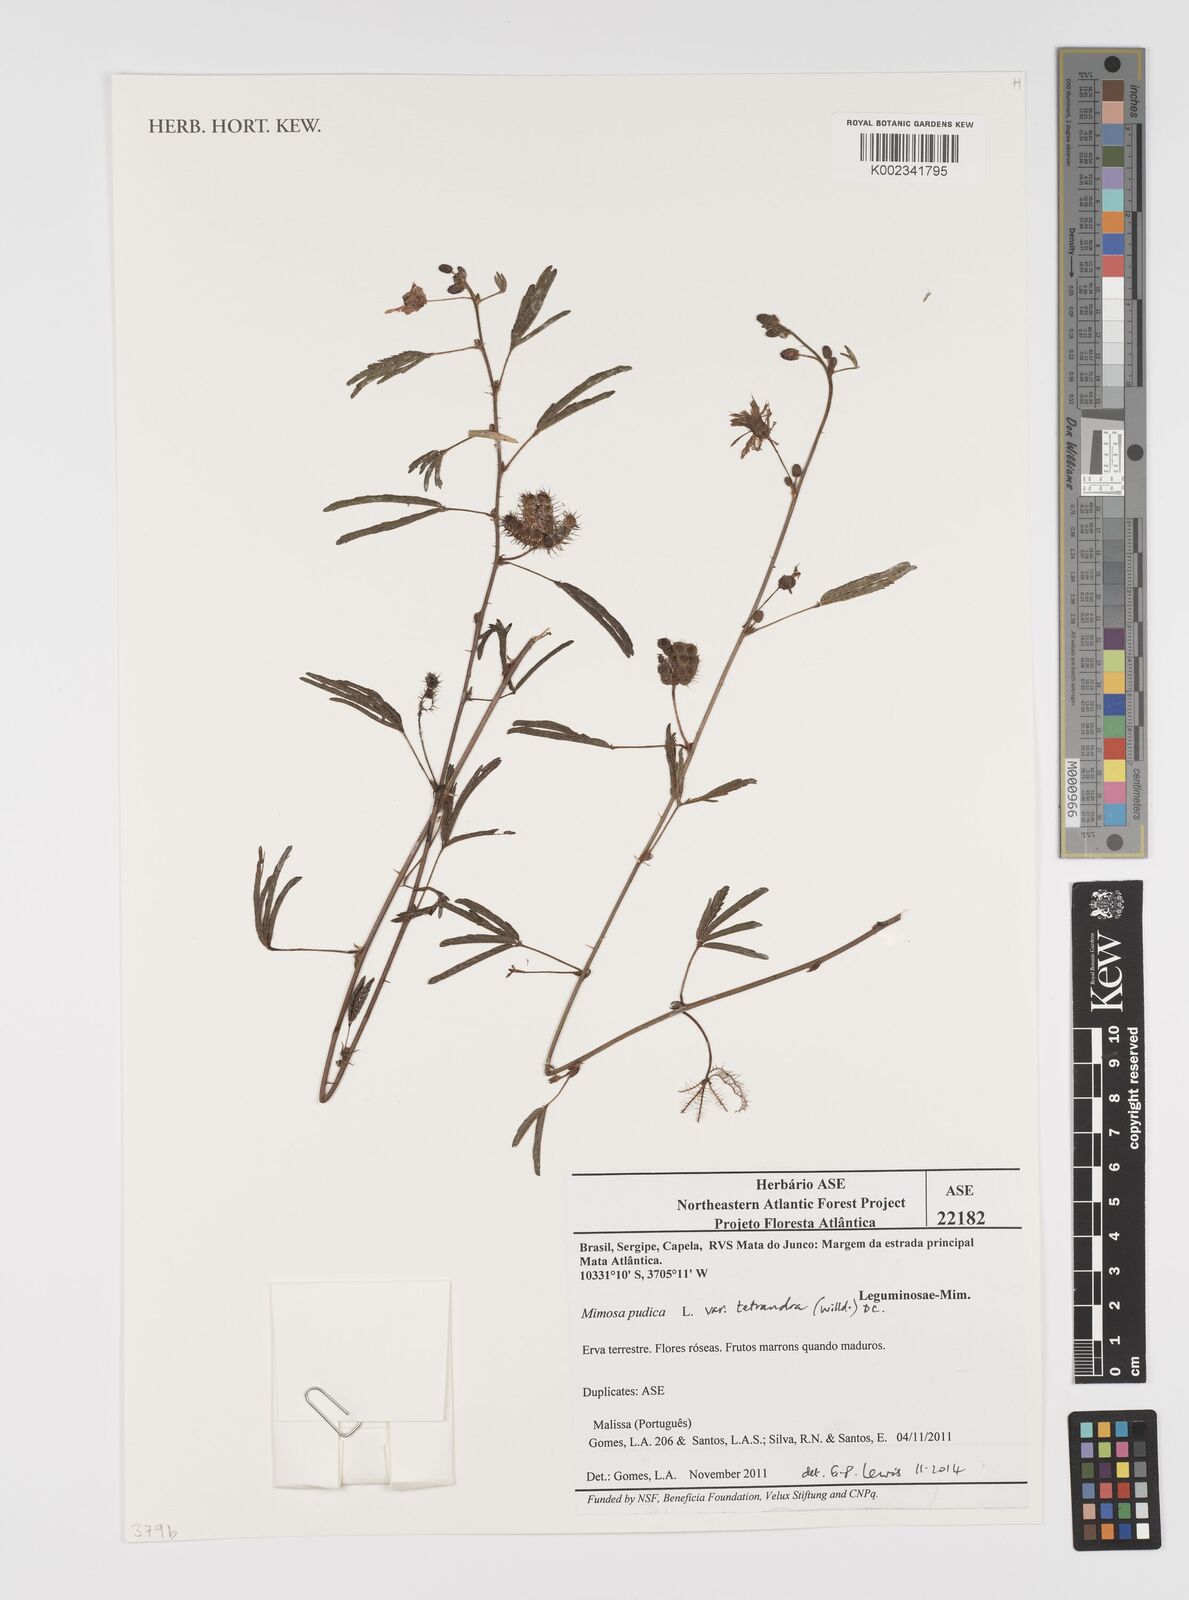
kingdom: Plantae
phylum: Tracheophyta
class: Magnoliopsida
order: Fabales
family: Fabaceae
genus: Mimosa
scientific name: Mimosa pudica
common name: Sensitive plant
